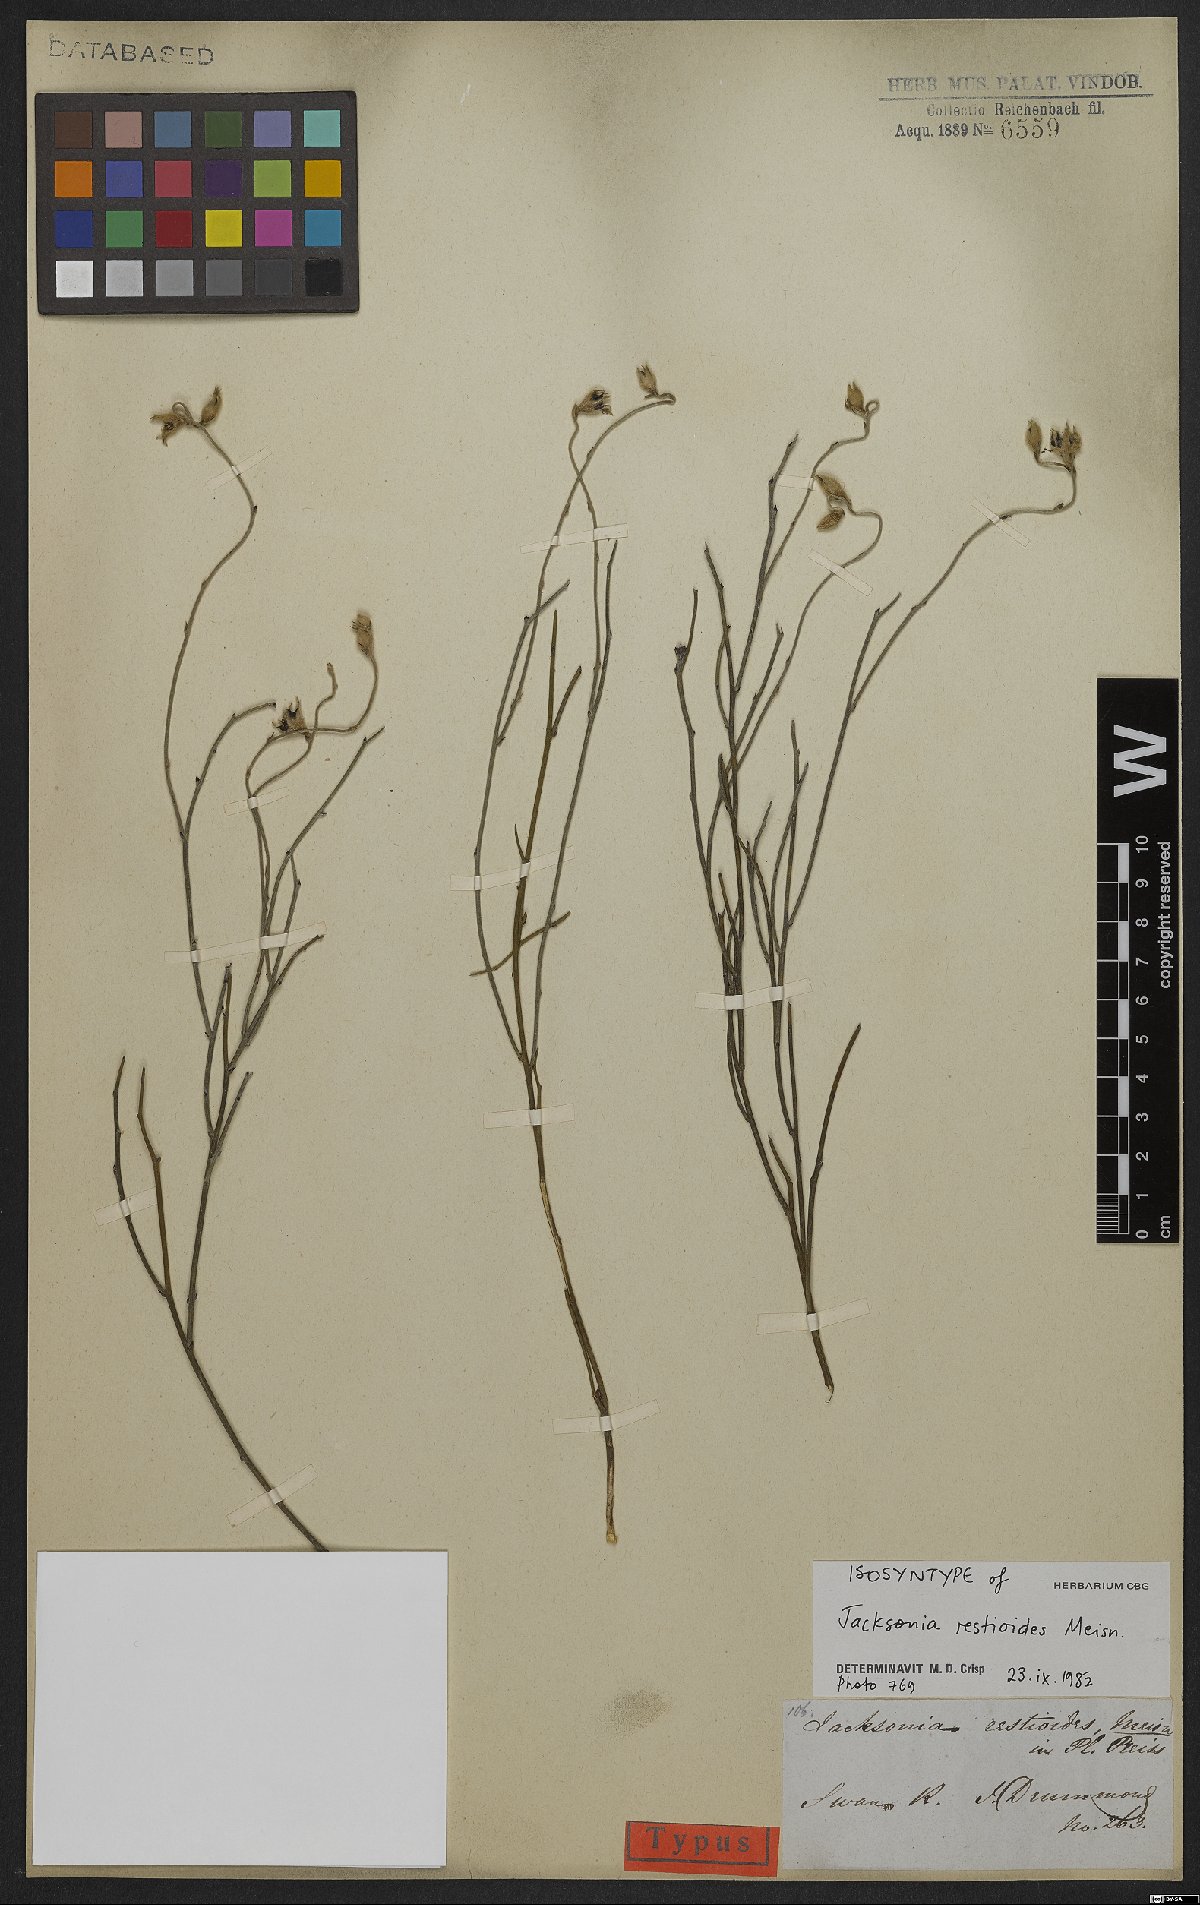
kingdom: Plantae
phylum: Tracheophyta
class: Magnoliopsida
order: Fabales
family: Fabaceae
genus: Jacksonia
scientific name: Jacksonia restioides
